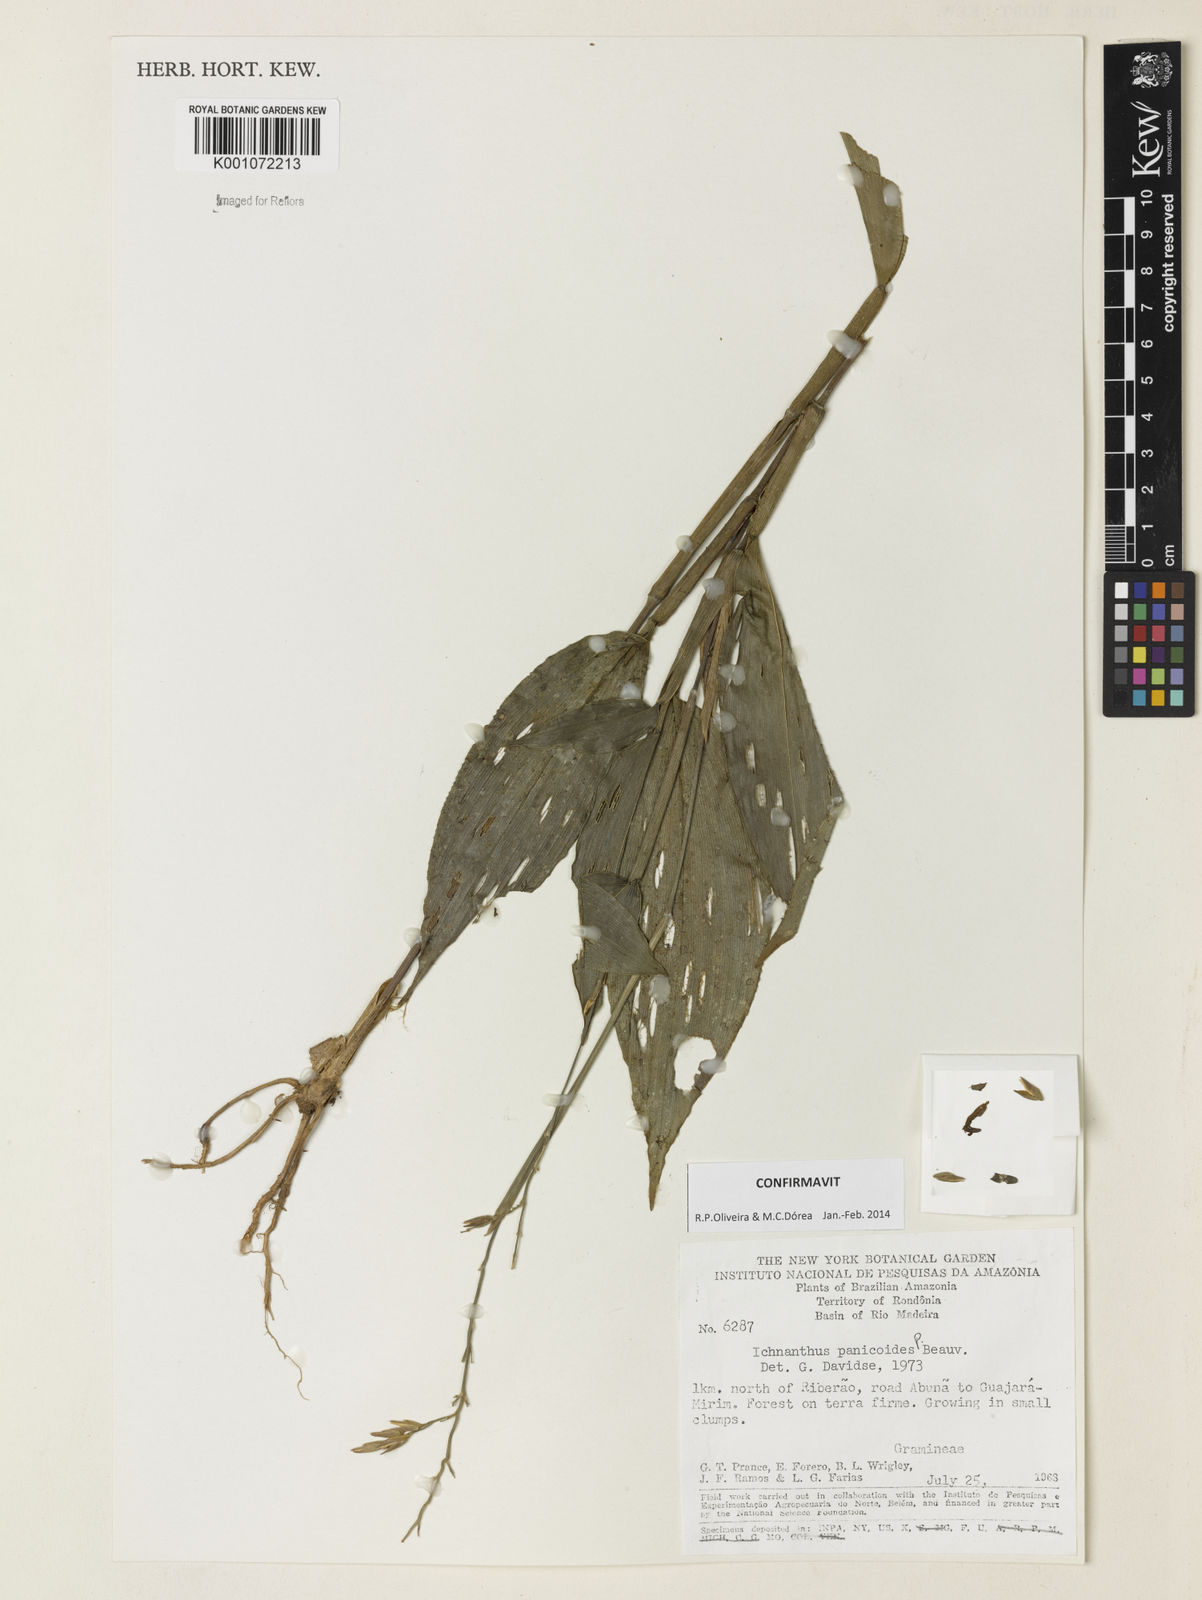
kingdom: Plantae
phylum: Tracheophyta
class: Liliopsida
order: Poales
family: Poaceae
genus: Ichnanthus
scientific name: Ichnanthus panicoides
